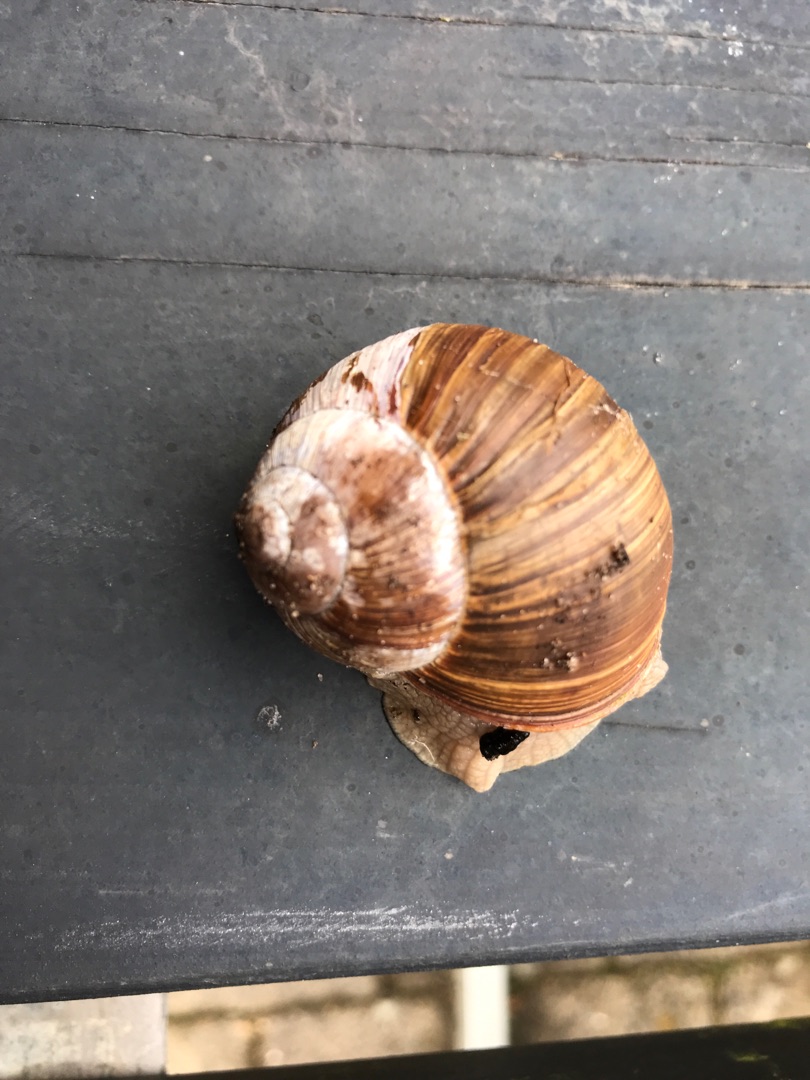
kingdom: Animalia
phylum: Mollusca
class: Gastropoda
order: Stylommatophora
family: Helicidae
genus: Helix
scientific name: Helix pomatia
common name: Vinbjergsnegl
